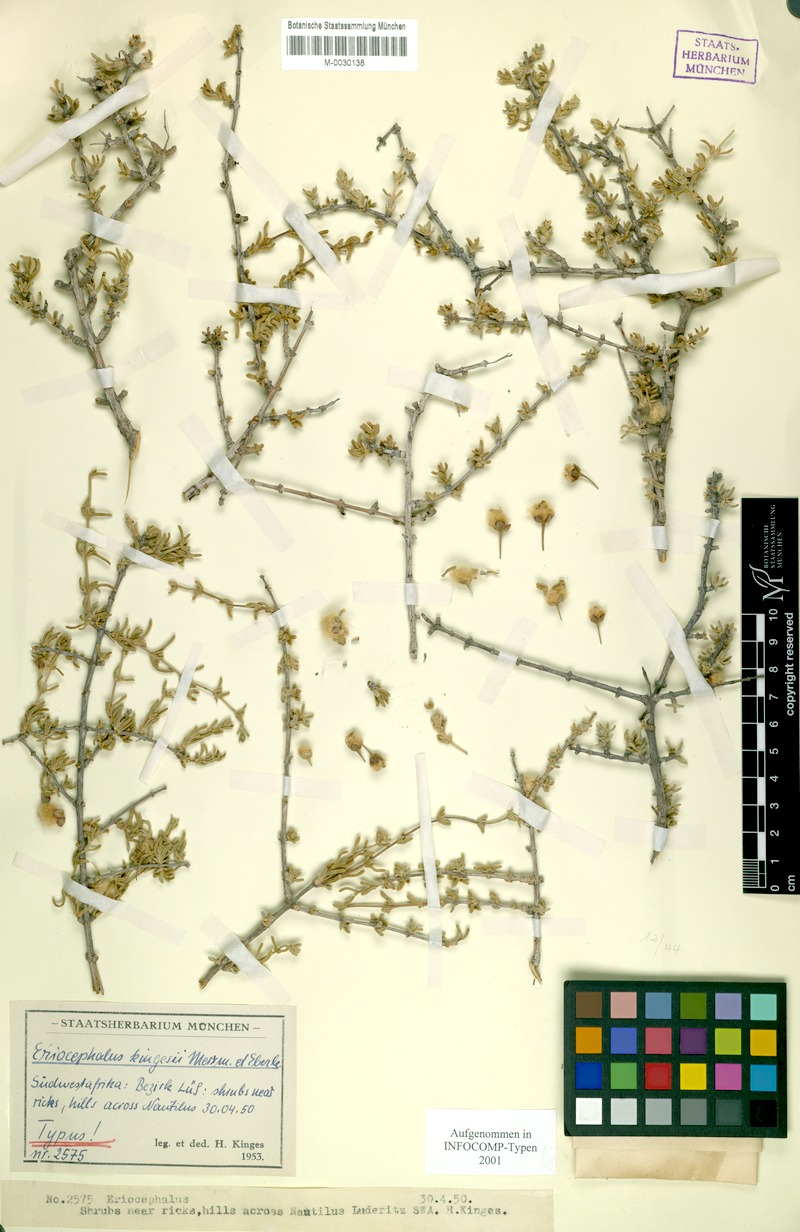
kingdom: Plantae
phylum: Tracheophyta
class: Magnoliopsida
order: Asterales
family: Asteraceae
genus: Eriocephalus
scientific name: Eriocephalus kingesii
